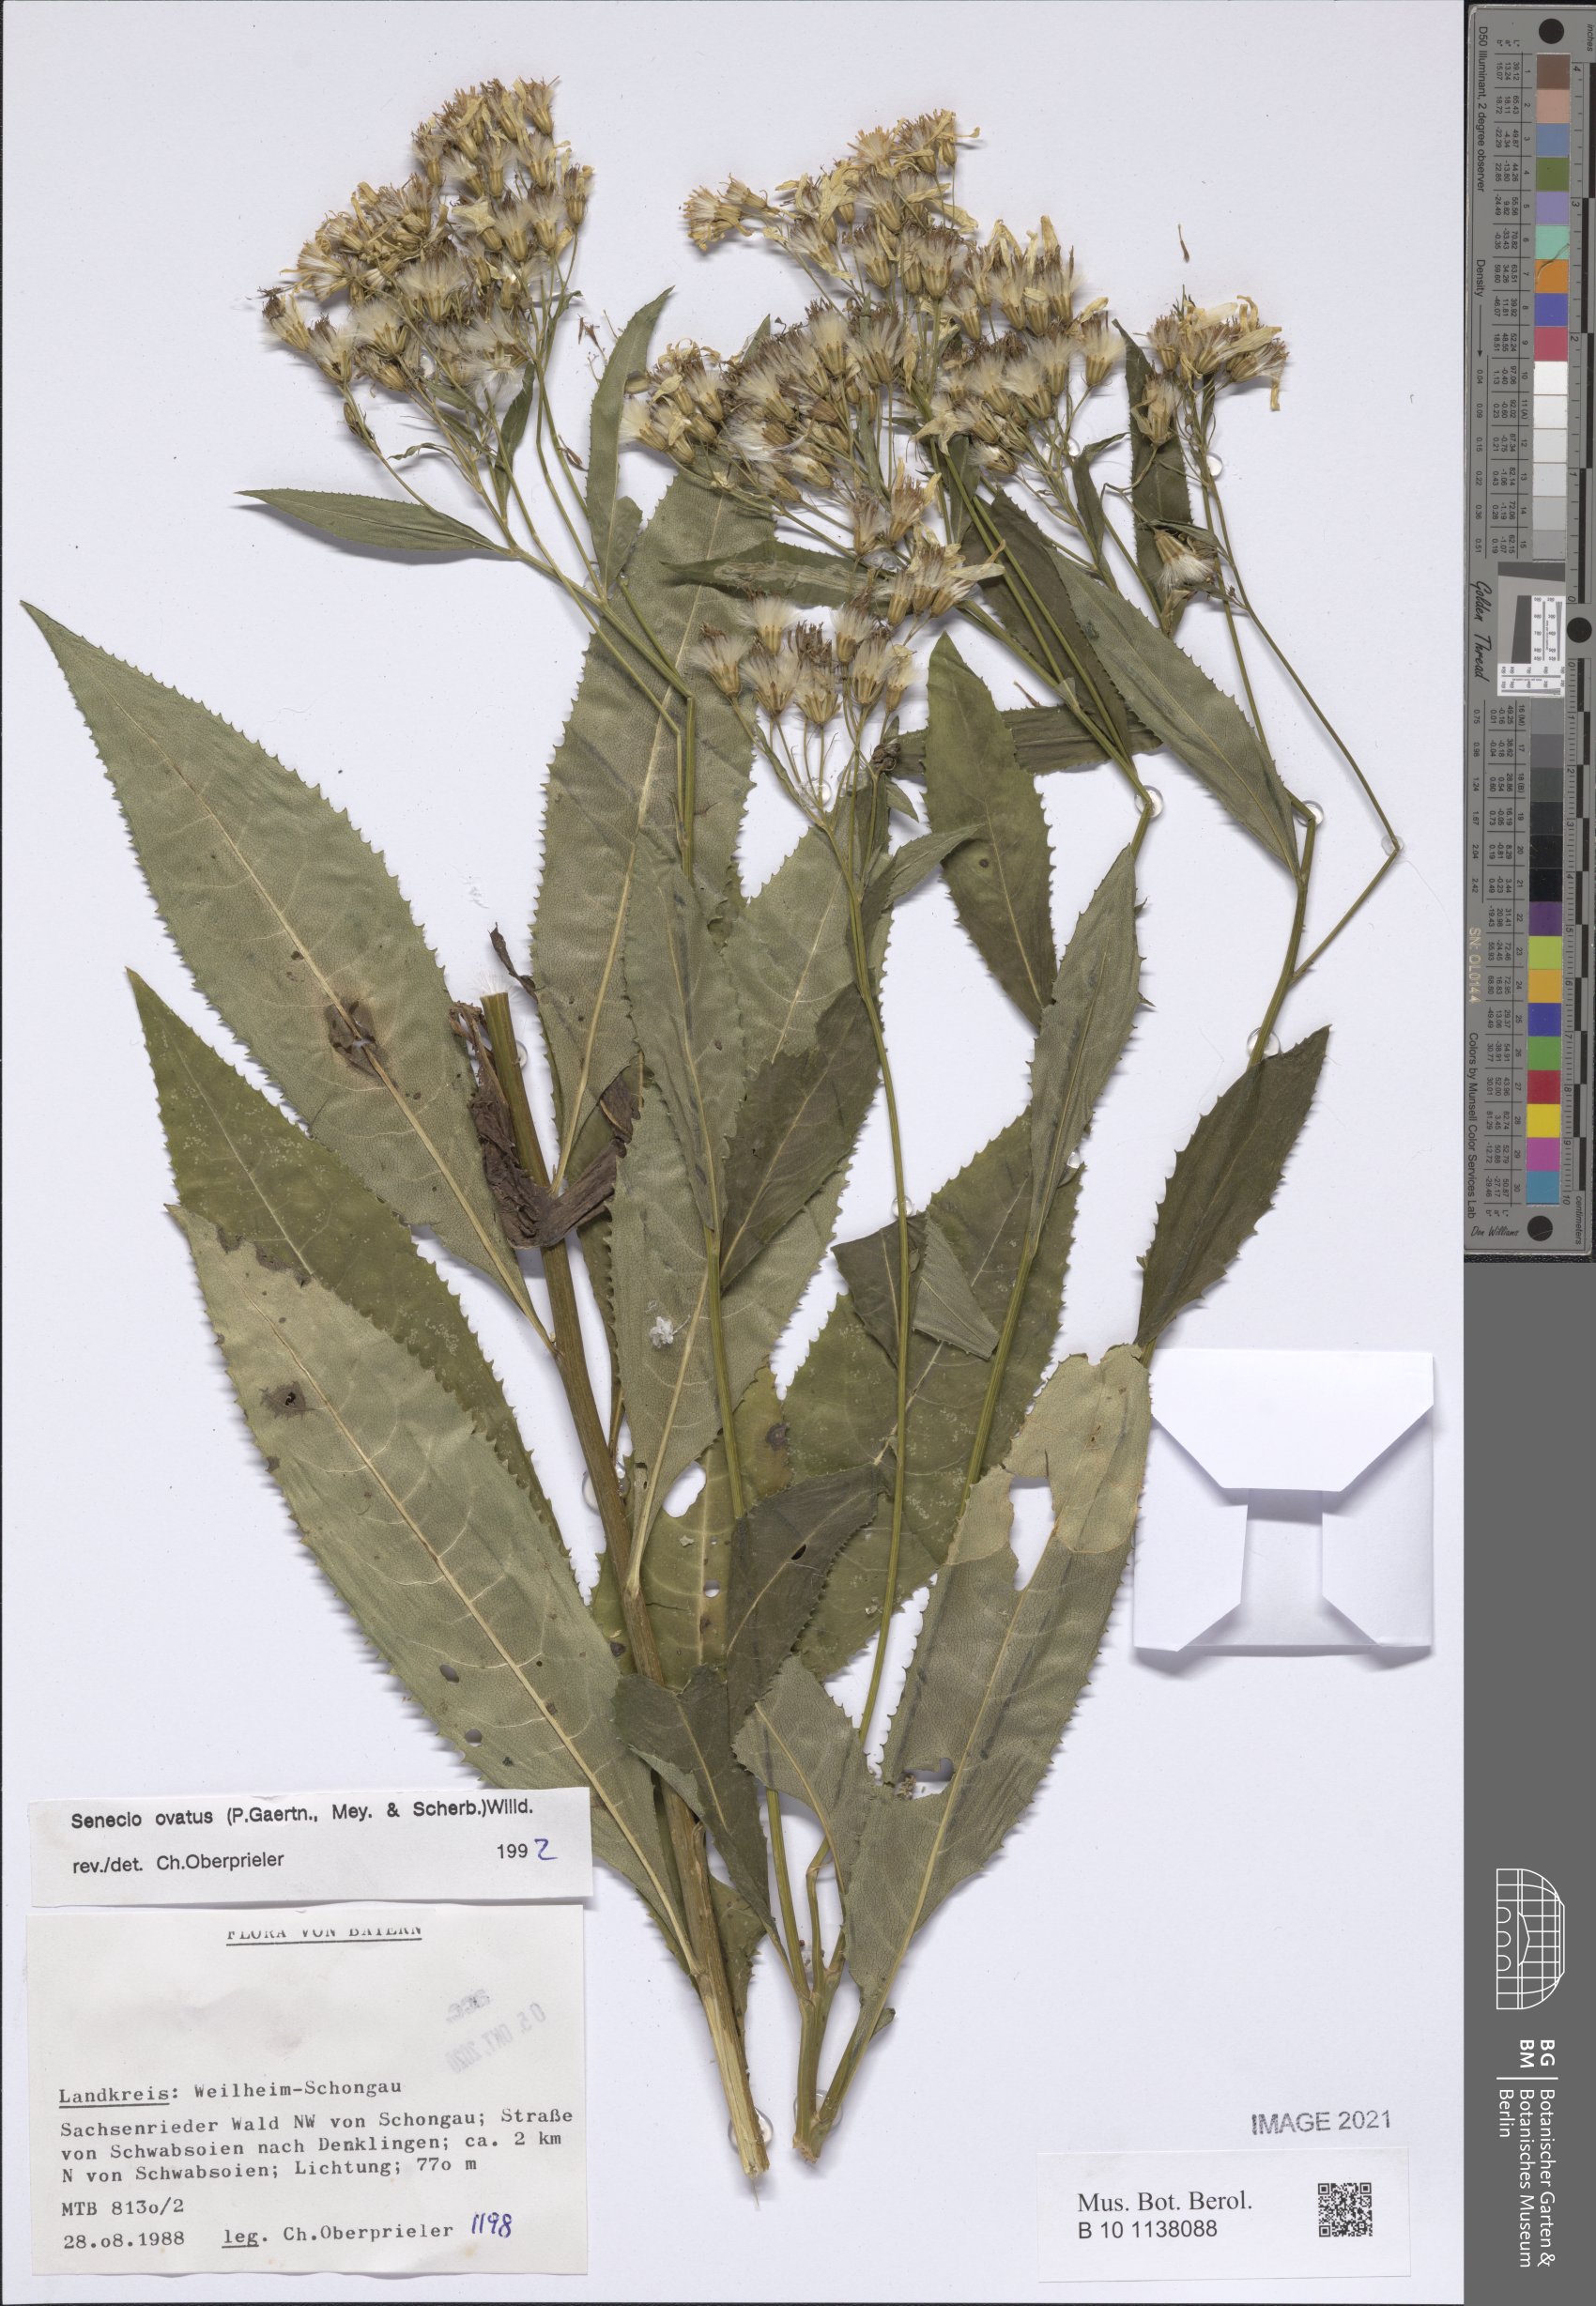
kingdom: Plantae
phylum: Tracheophyta
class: Magnoliopsida
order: Asterales
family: Asteraceae
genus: Senecio
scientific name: Senecio ovatus
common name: Wood ragwort
